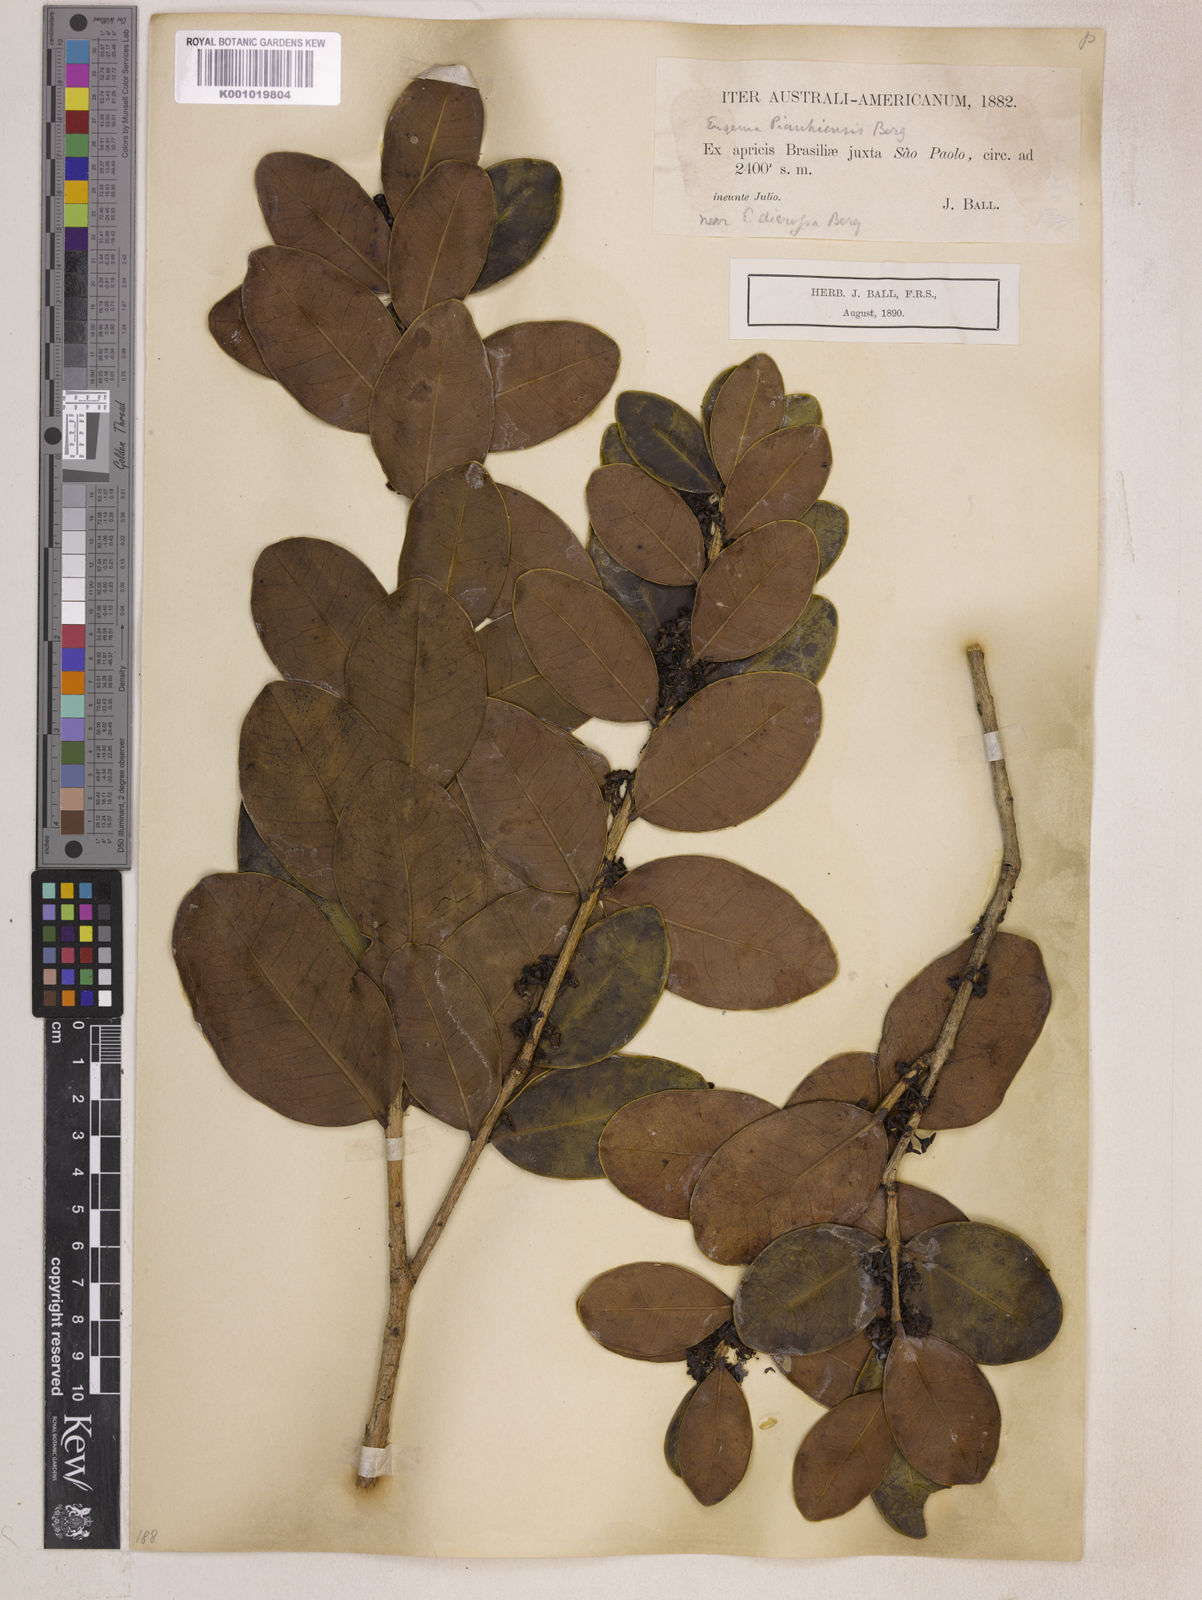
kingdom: Plantae
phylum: Tracheophyta
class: Magnoliopsida
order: Myrtales
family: Myrtaceae
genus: Eugenia
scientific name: Eugenia stictopetala
